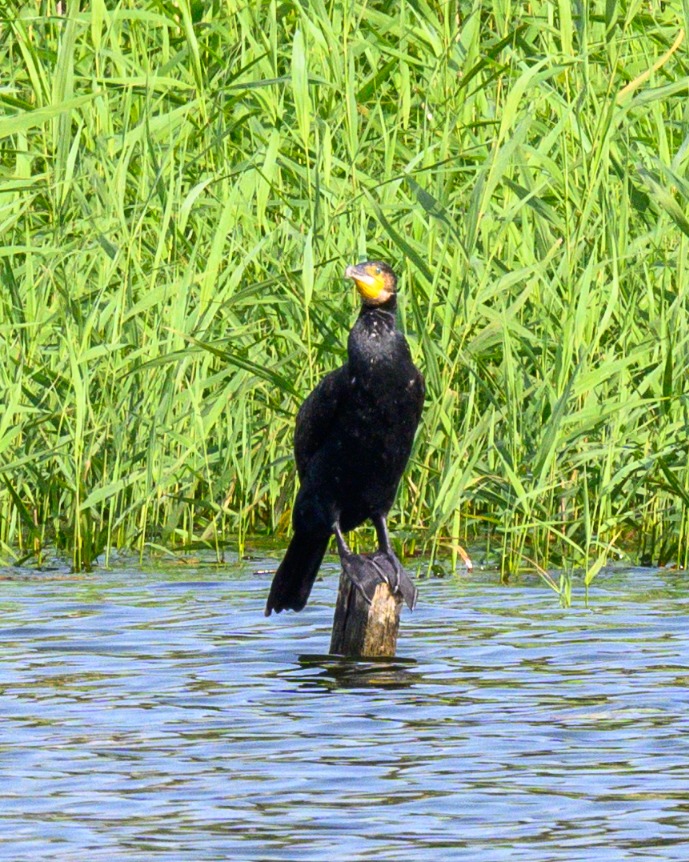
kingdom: Animalia
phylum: Chordata
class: Aves
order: Suliformes
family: Phalacrocoracidae
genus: Phalacrocorax
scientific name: Phalacrocorax carbo
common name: Skarv
